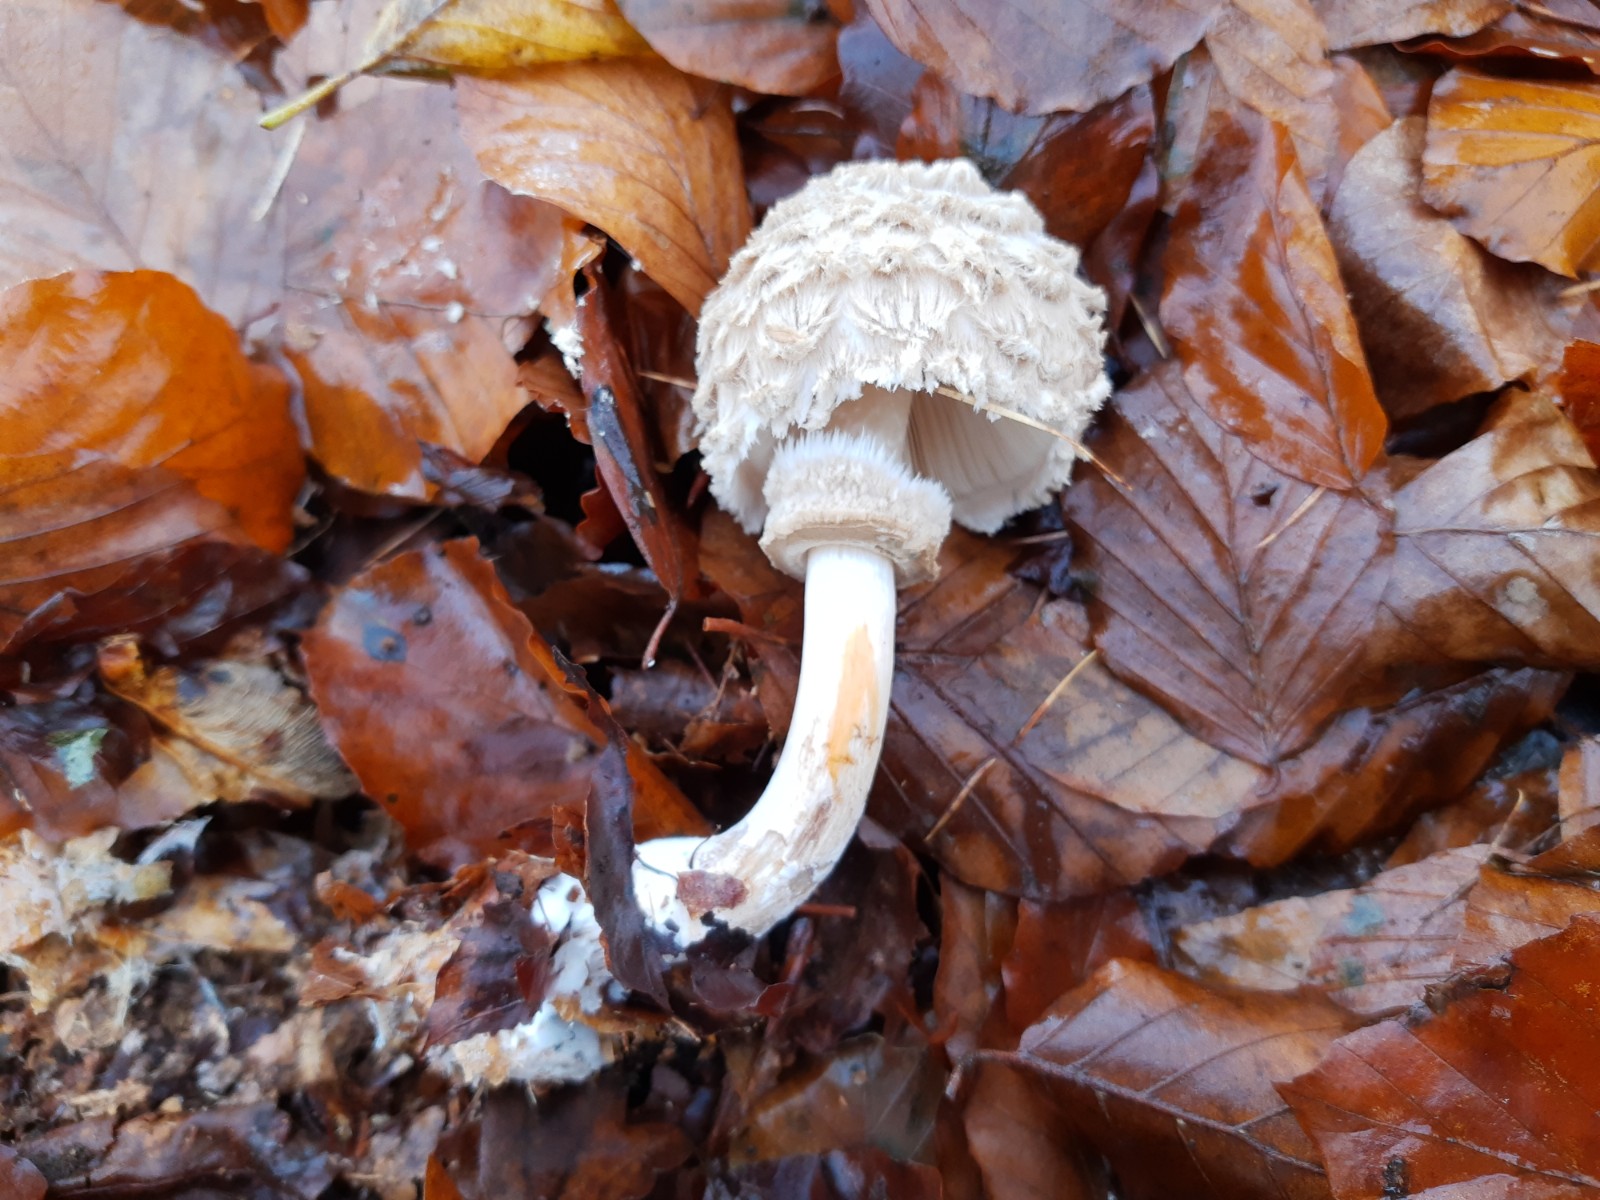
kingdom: Fungi
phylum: Basidiomycota
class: Agaricomycetes
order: Agaricales
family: Agaricaceae
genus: Chlorophyllum
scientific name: Chlorophyllum
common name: rabarberhat
